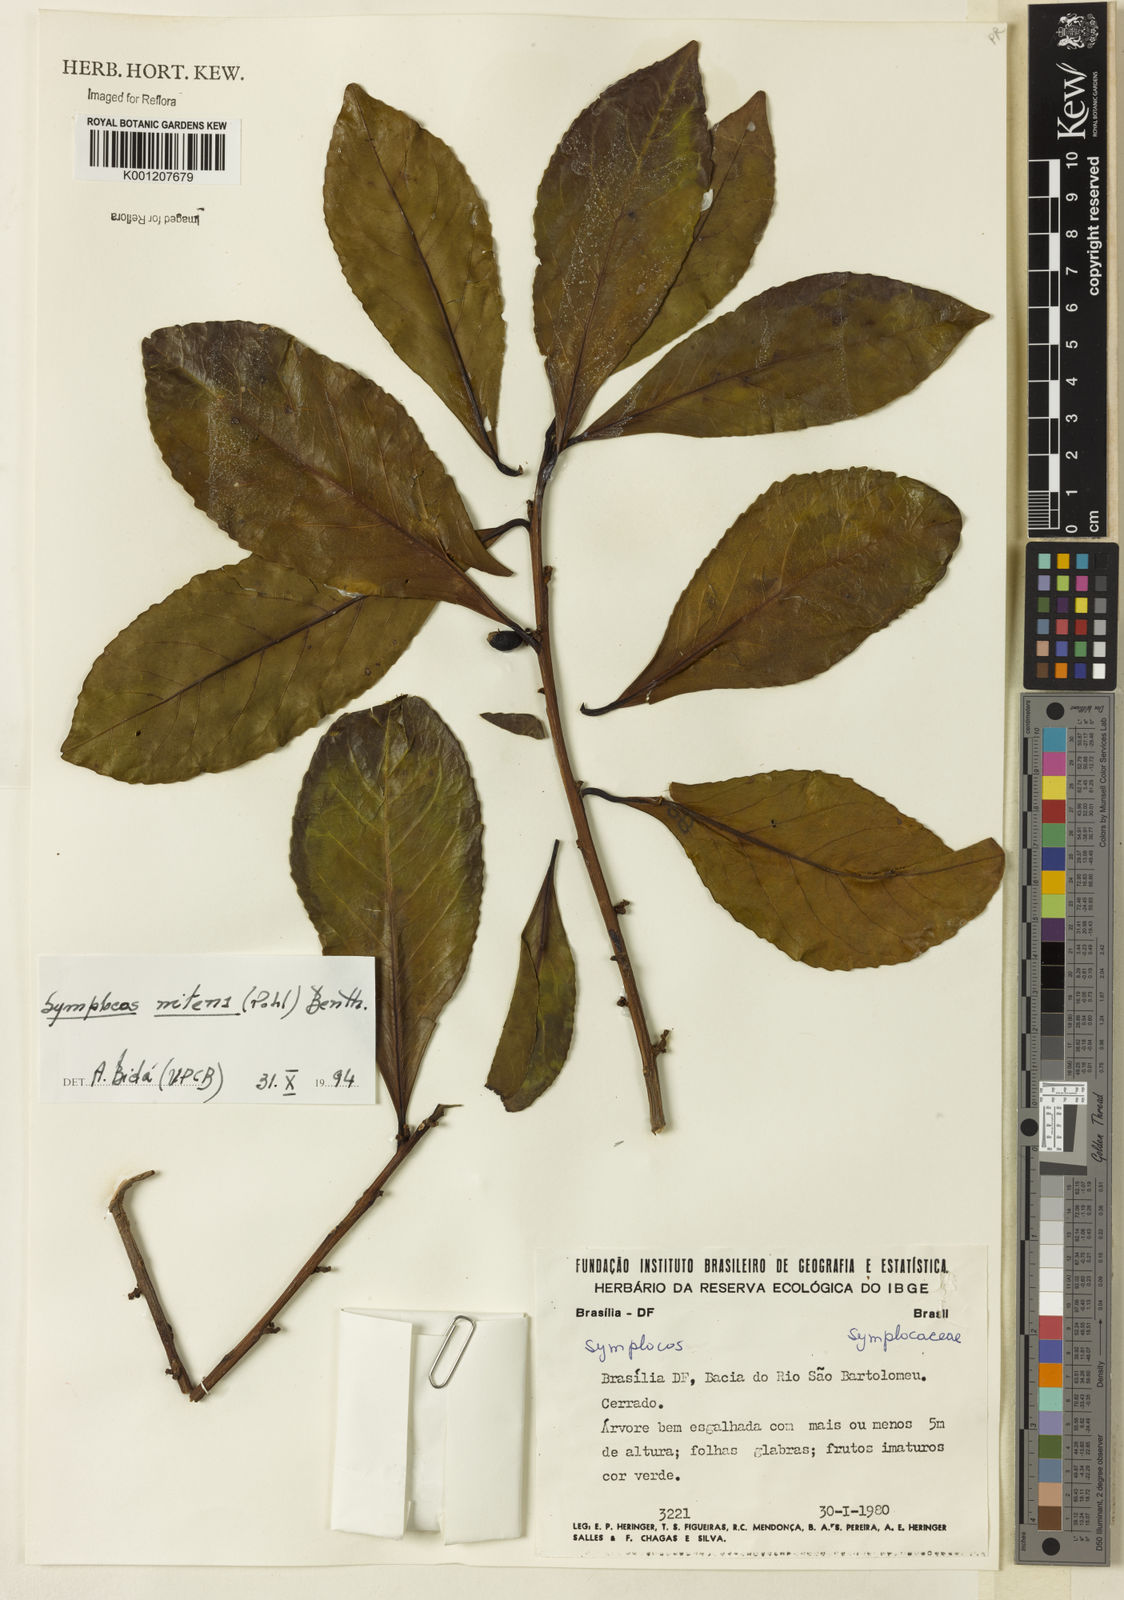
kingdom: Plantae
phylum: Tracheophyta
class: Magnoliopsida
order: Ericales
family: Symplocaceae
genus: Symplocos
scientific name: Symplocos nitens
